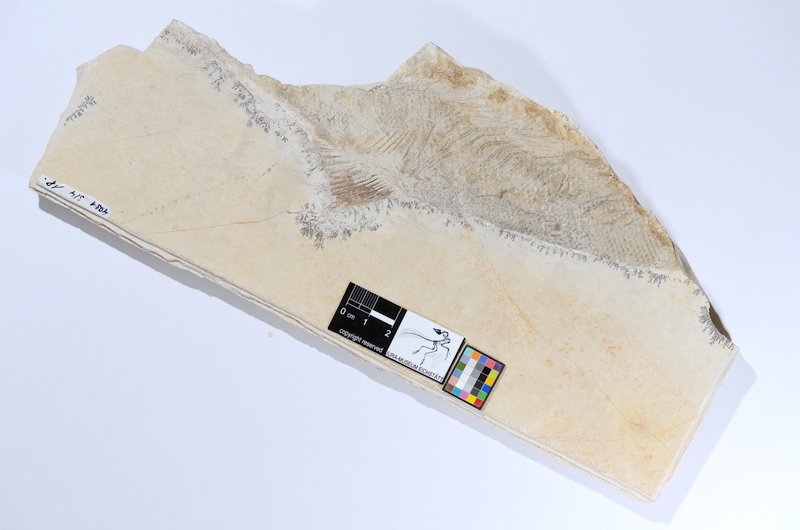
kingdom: Animalia
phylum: Chordata
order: Amiiformes
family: Caturidae
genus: Caturus
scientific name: Caturus
